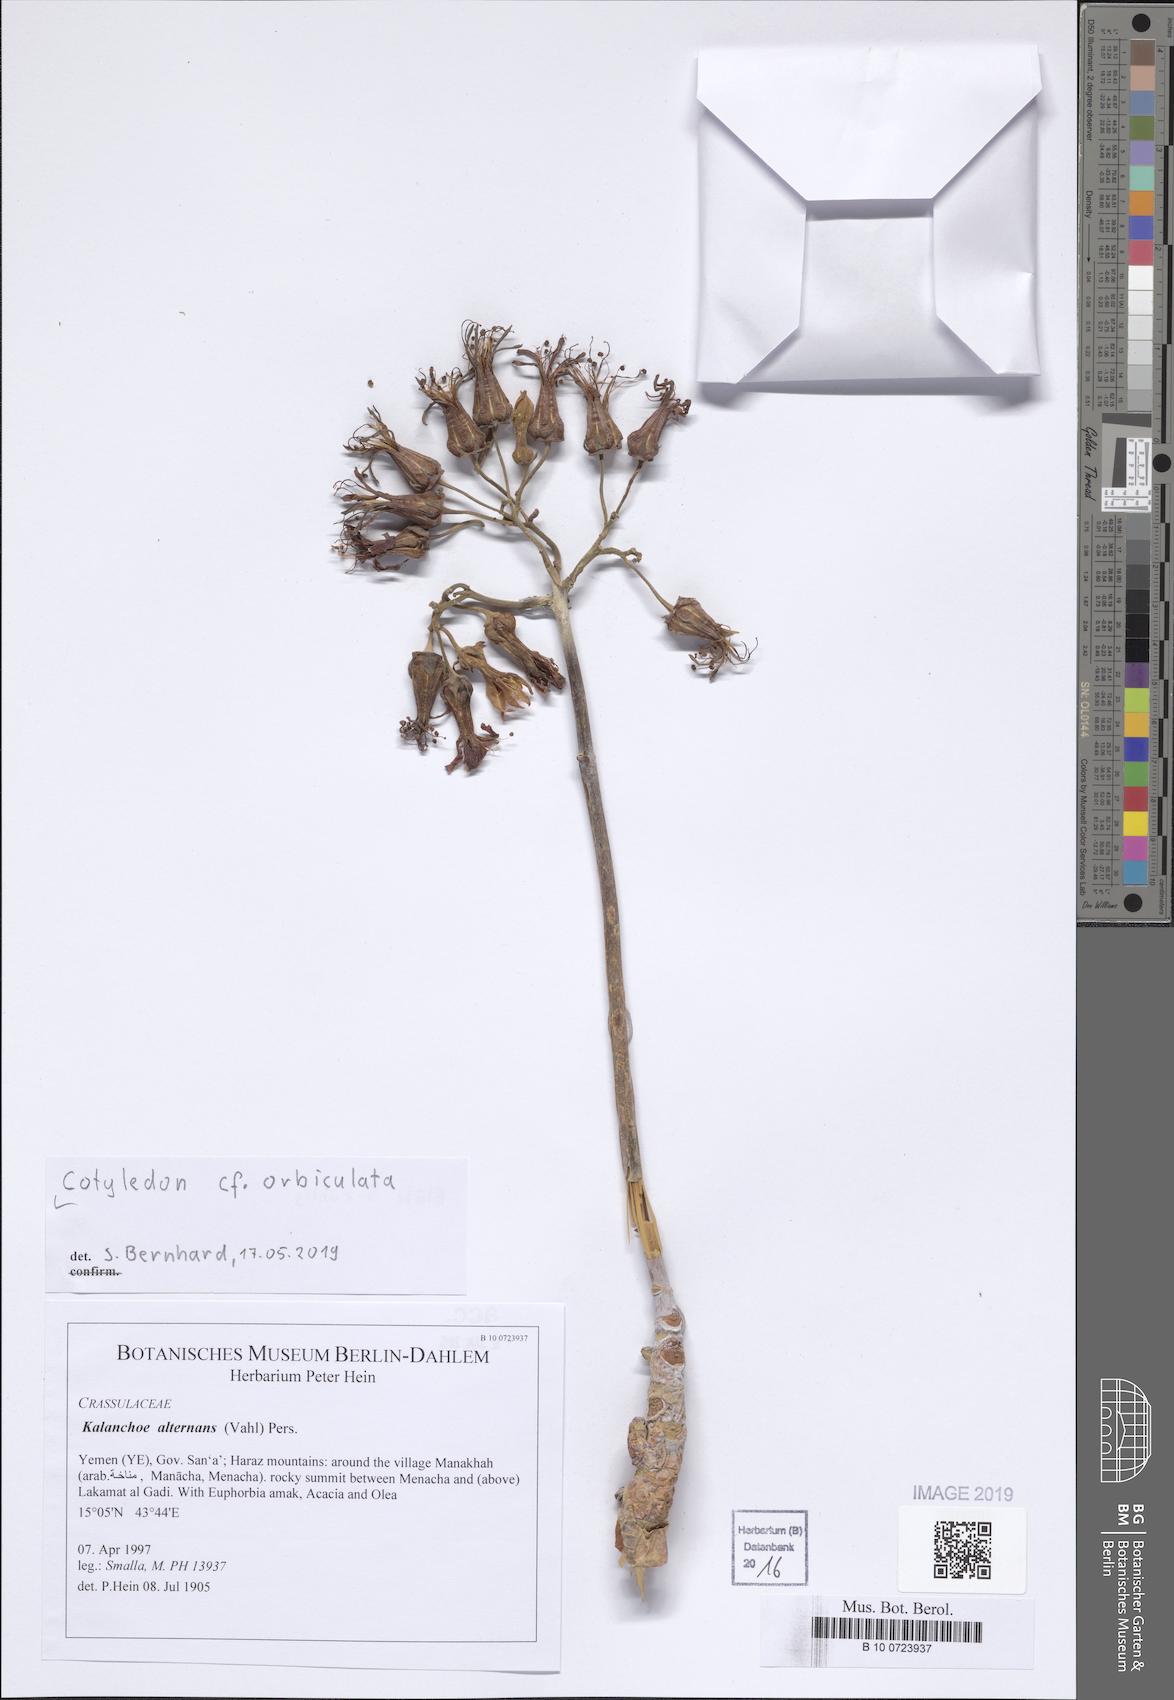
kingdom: Plantae
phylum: Tracheophyta
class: Magnoliopsida
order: Saxifragales
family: Crassulaceae
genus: Cotyledon
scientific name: Cotyledon orbiculata
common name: Pig's ear
